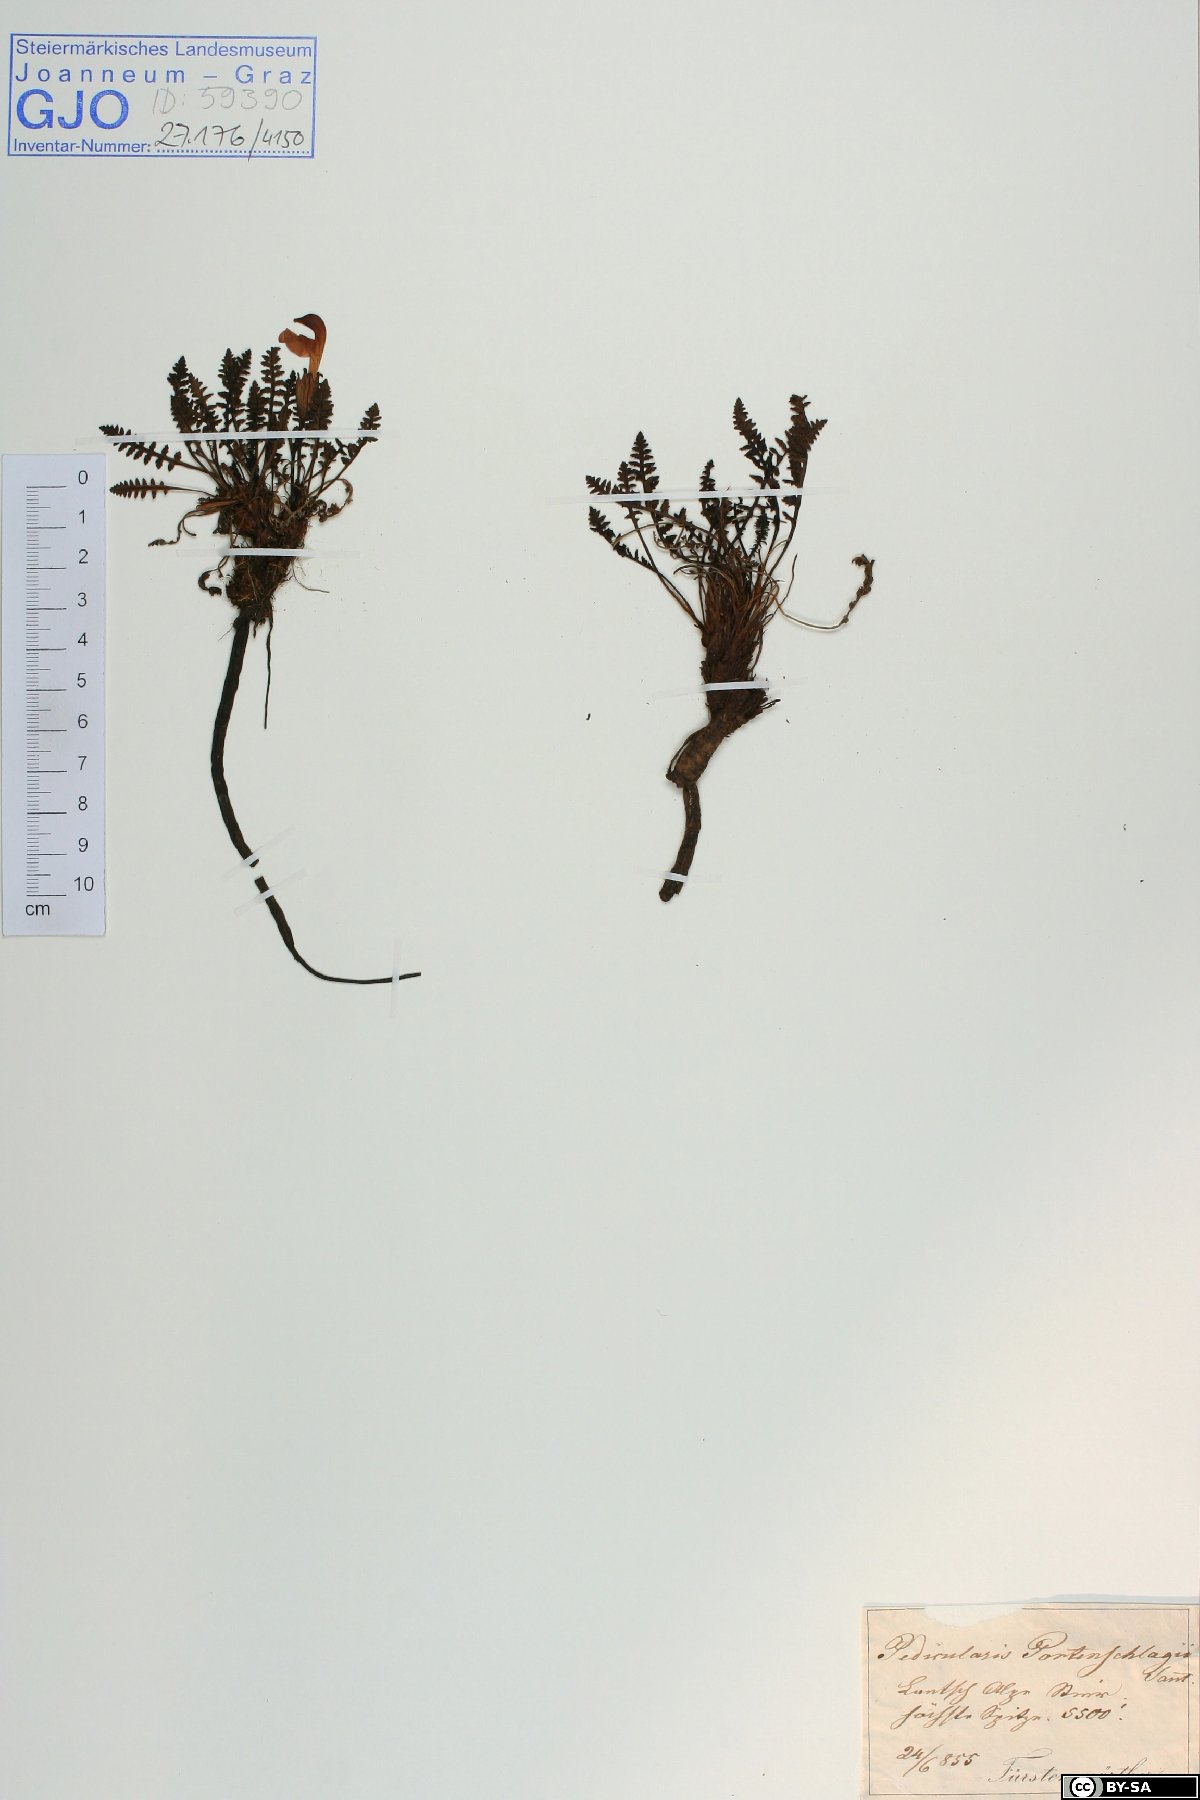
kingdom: Plantae
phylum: Tracheophyta
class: Magnoliopsida
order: Lamiales
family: Orobanchaceae
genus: Pedicularis
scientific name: Pedicularis portenschlagii
